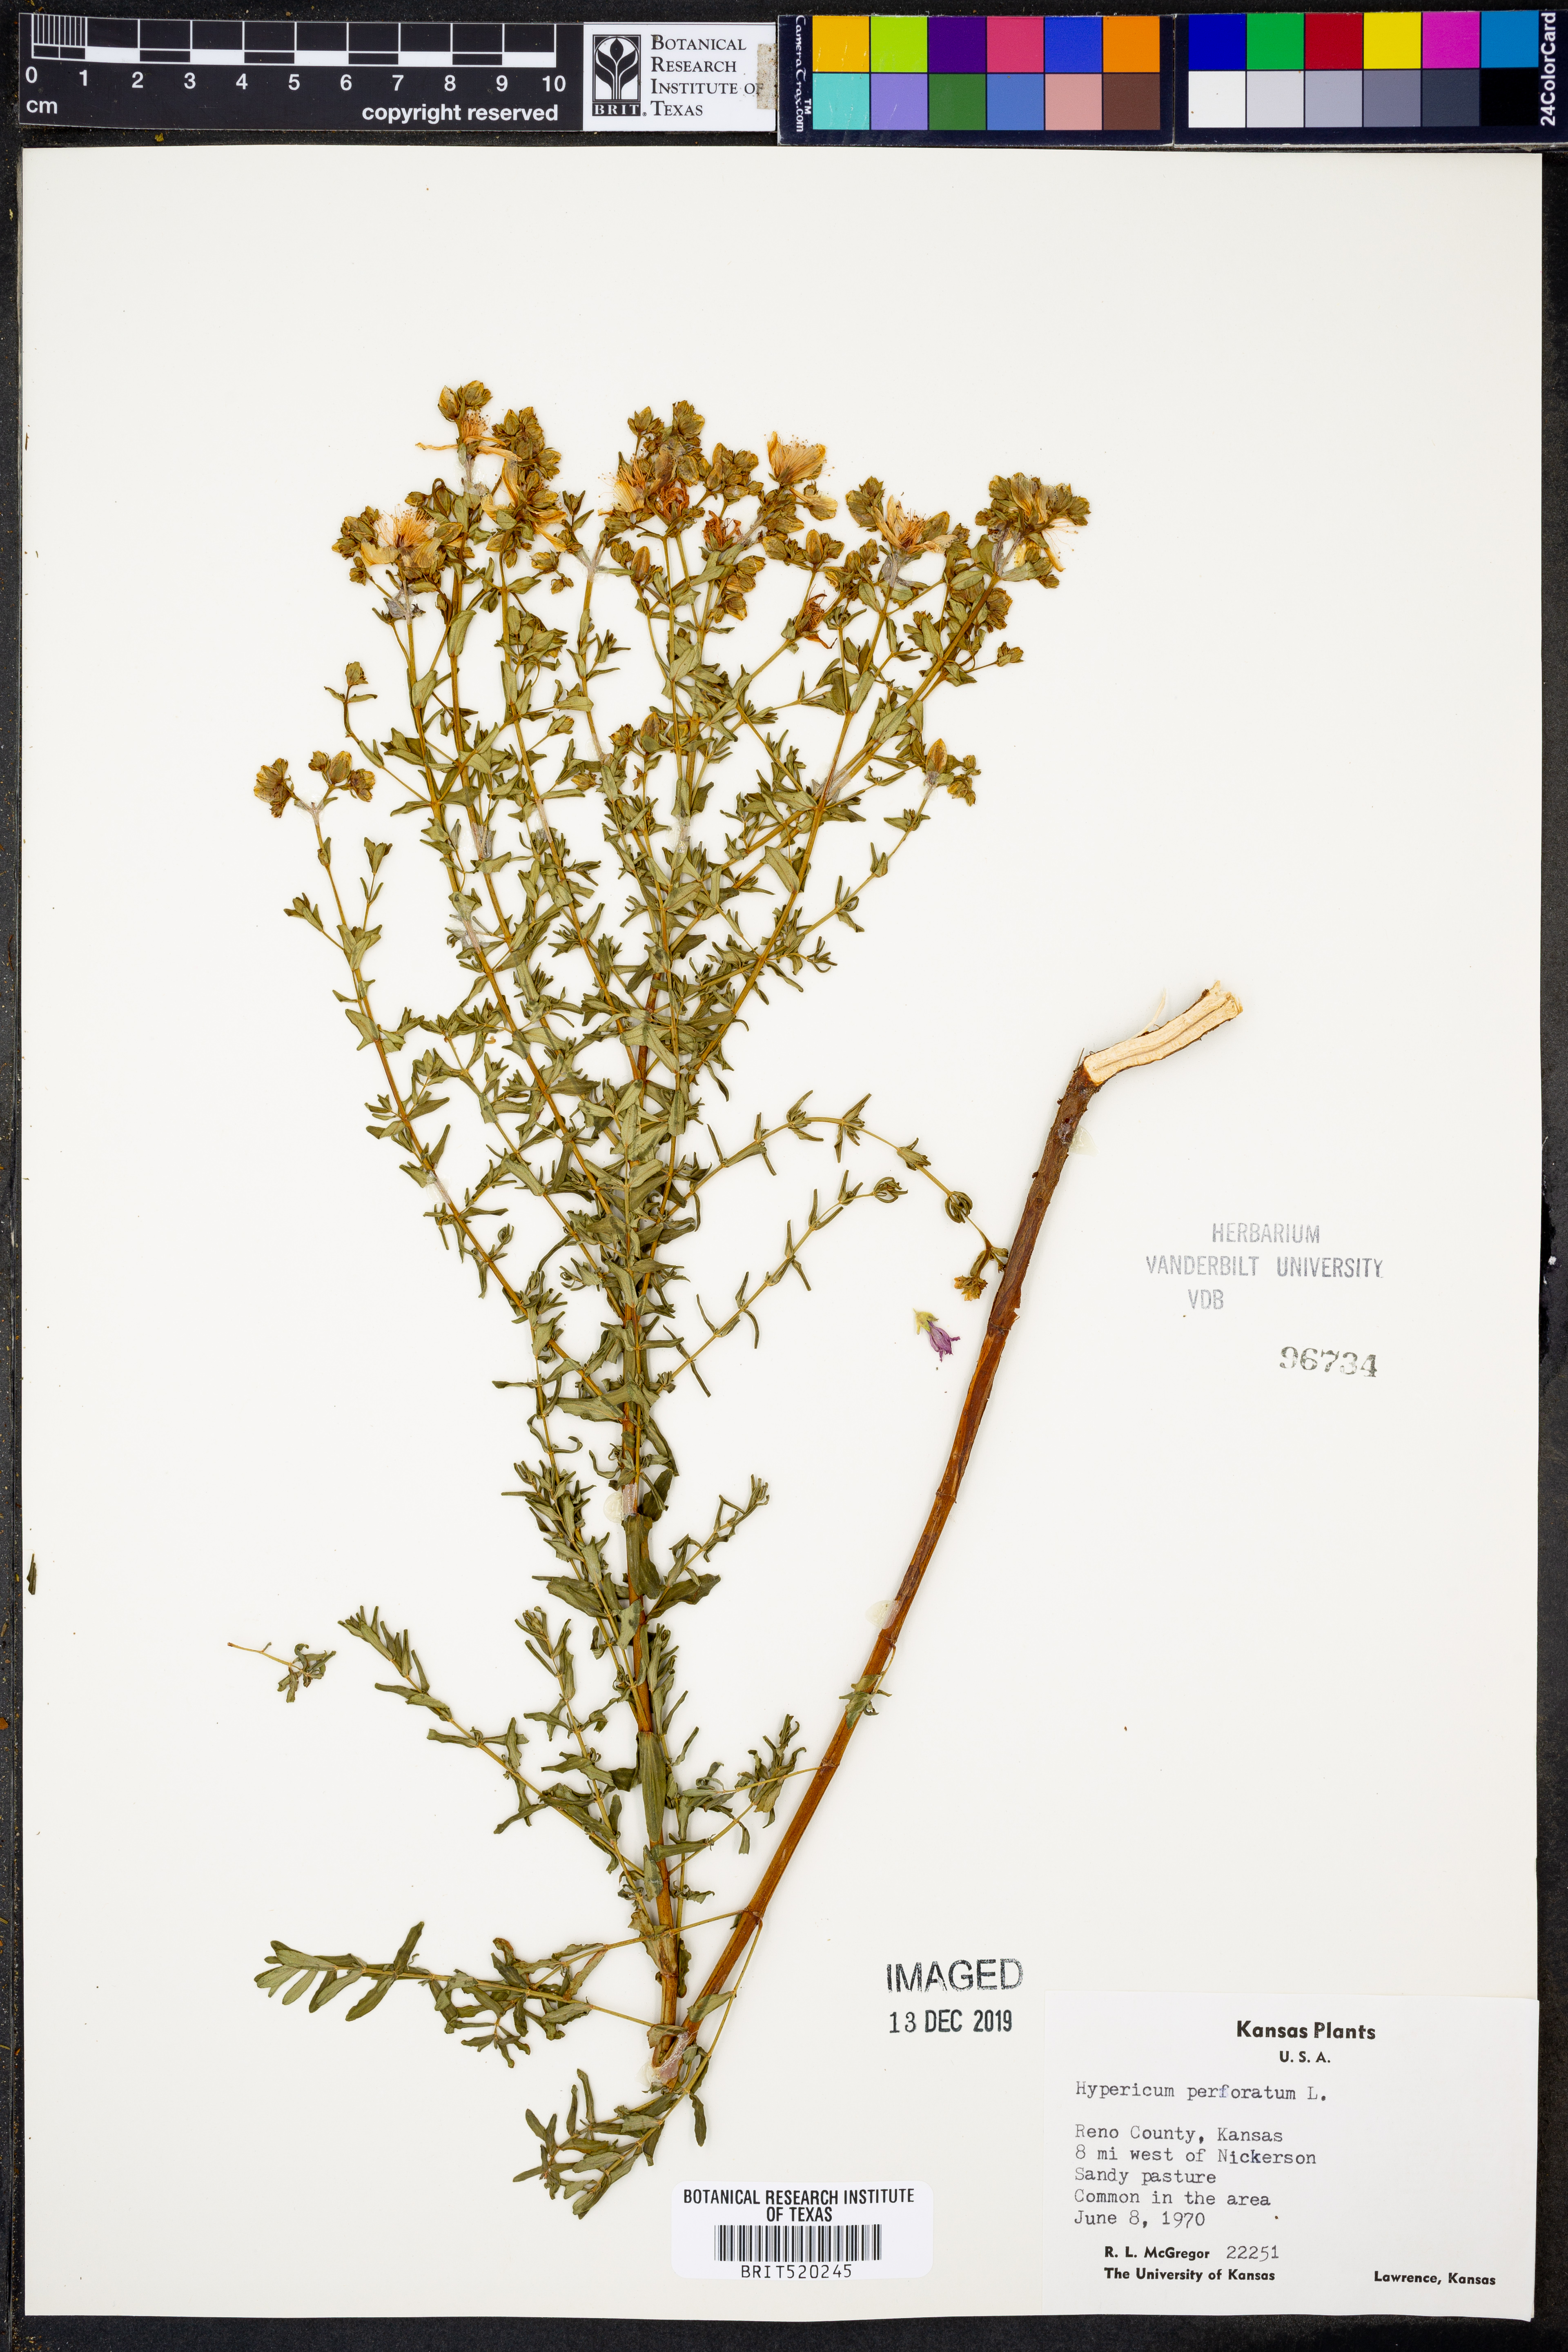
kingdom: Plantae
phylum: Tracheophyta
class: Magnoliopsida
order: Malpighiales
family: Hypericaceae
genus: Hypericum
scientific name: Hypericum perforatum
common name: Common st. johnswort
